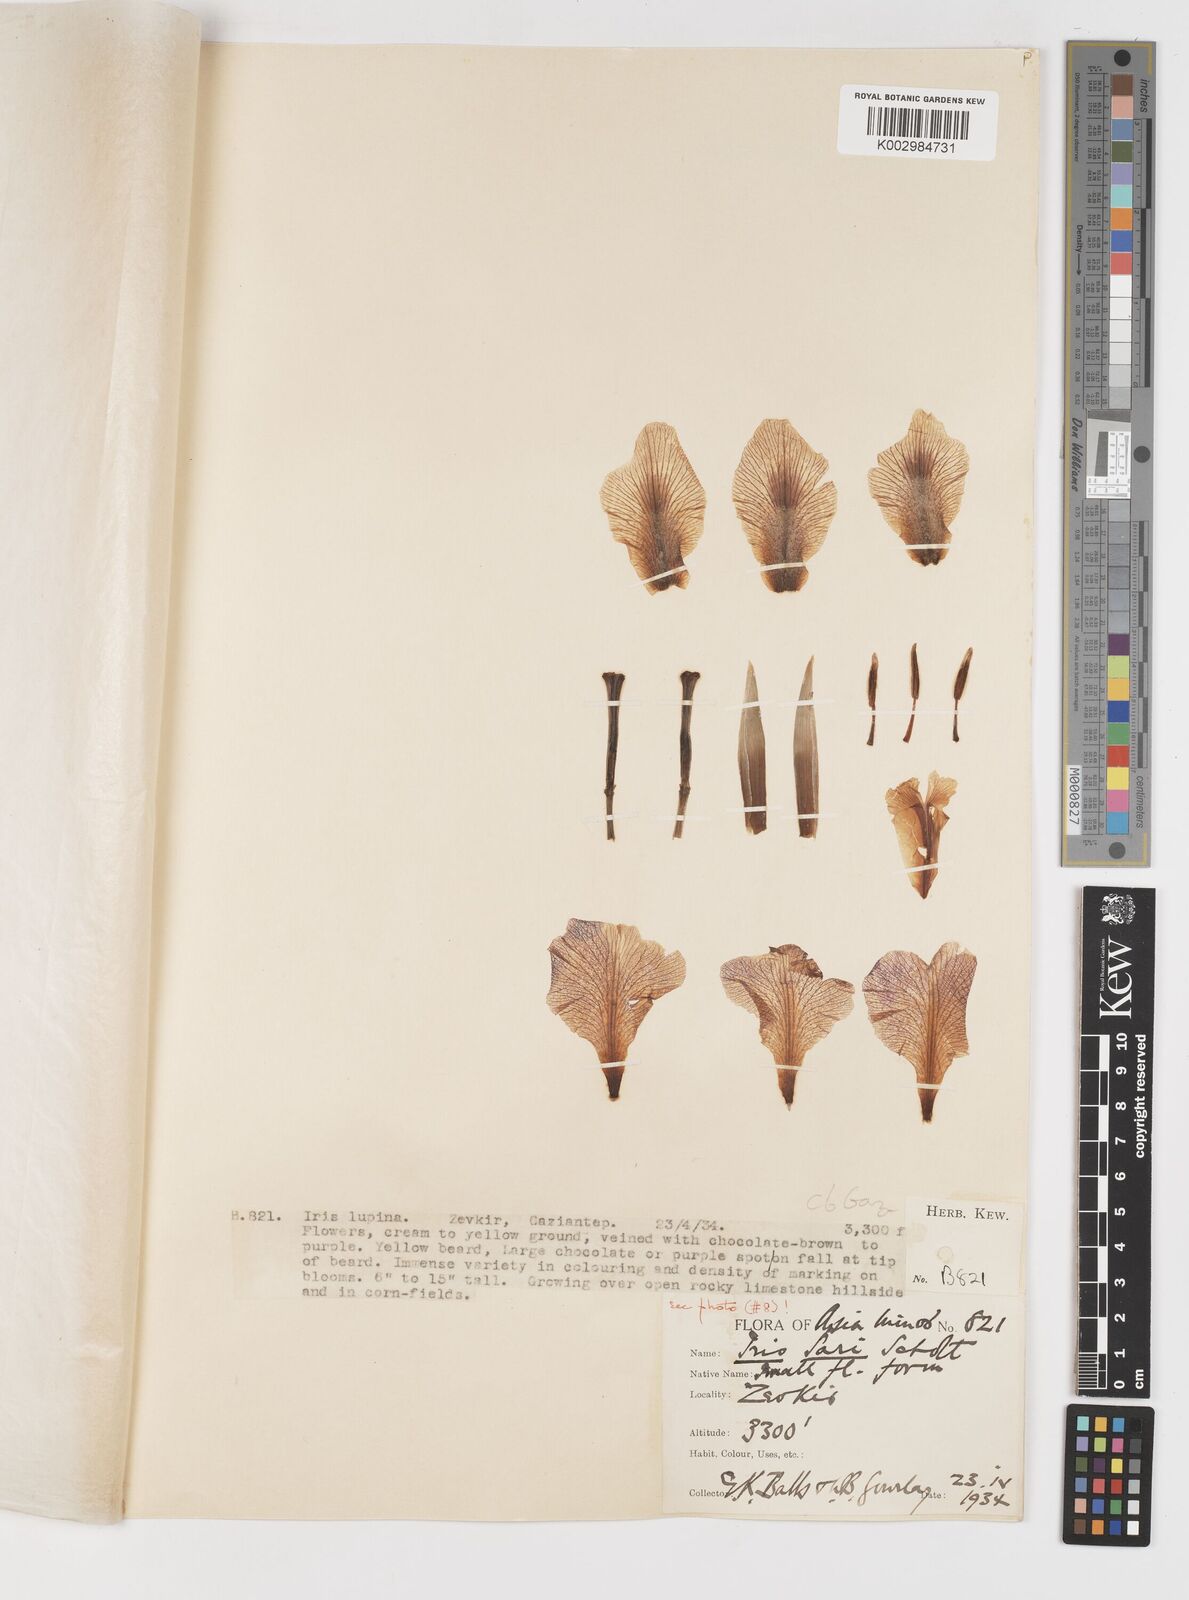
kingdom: Plantae
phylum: Tracheophyta
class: Liliopsida
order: Asparagales
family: Iridaceae
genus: Iris
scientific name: Iris sari
